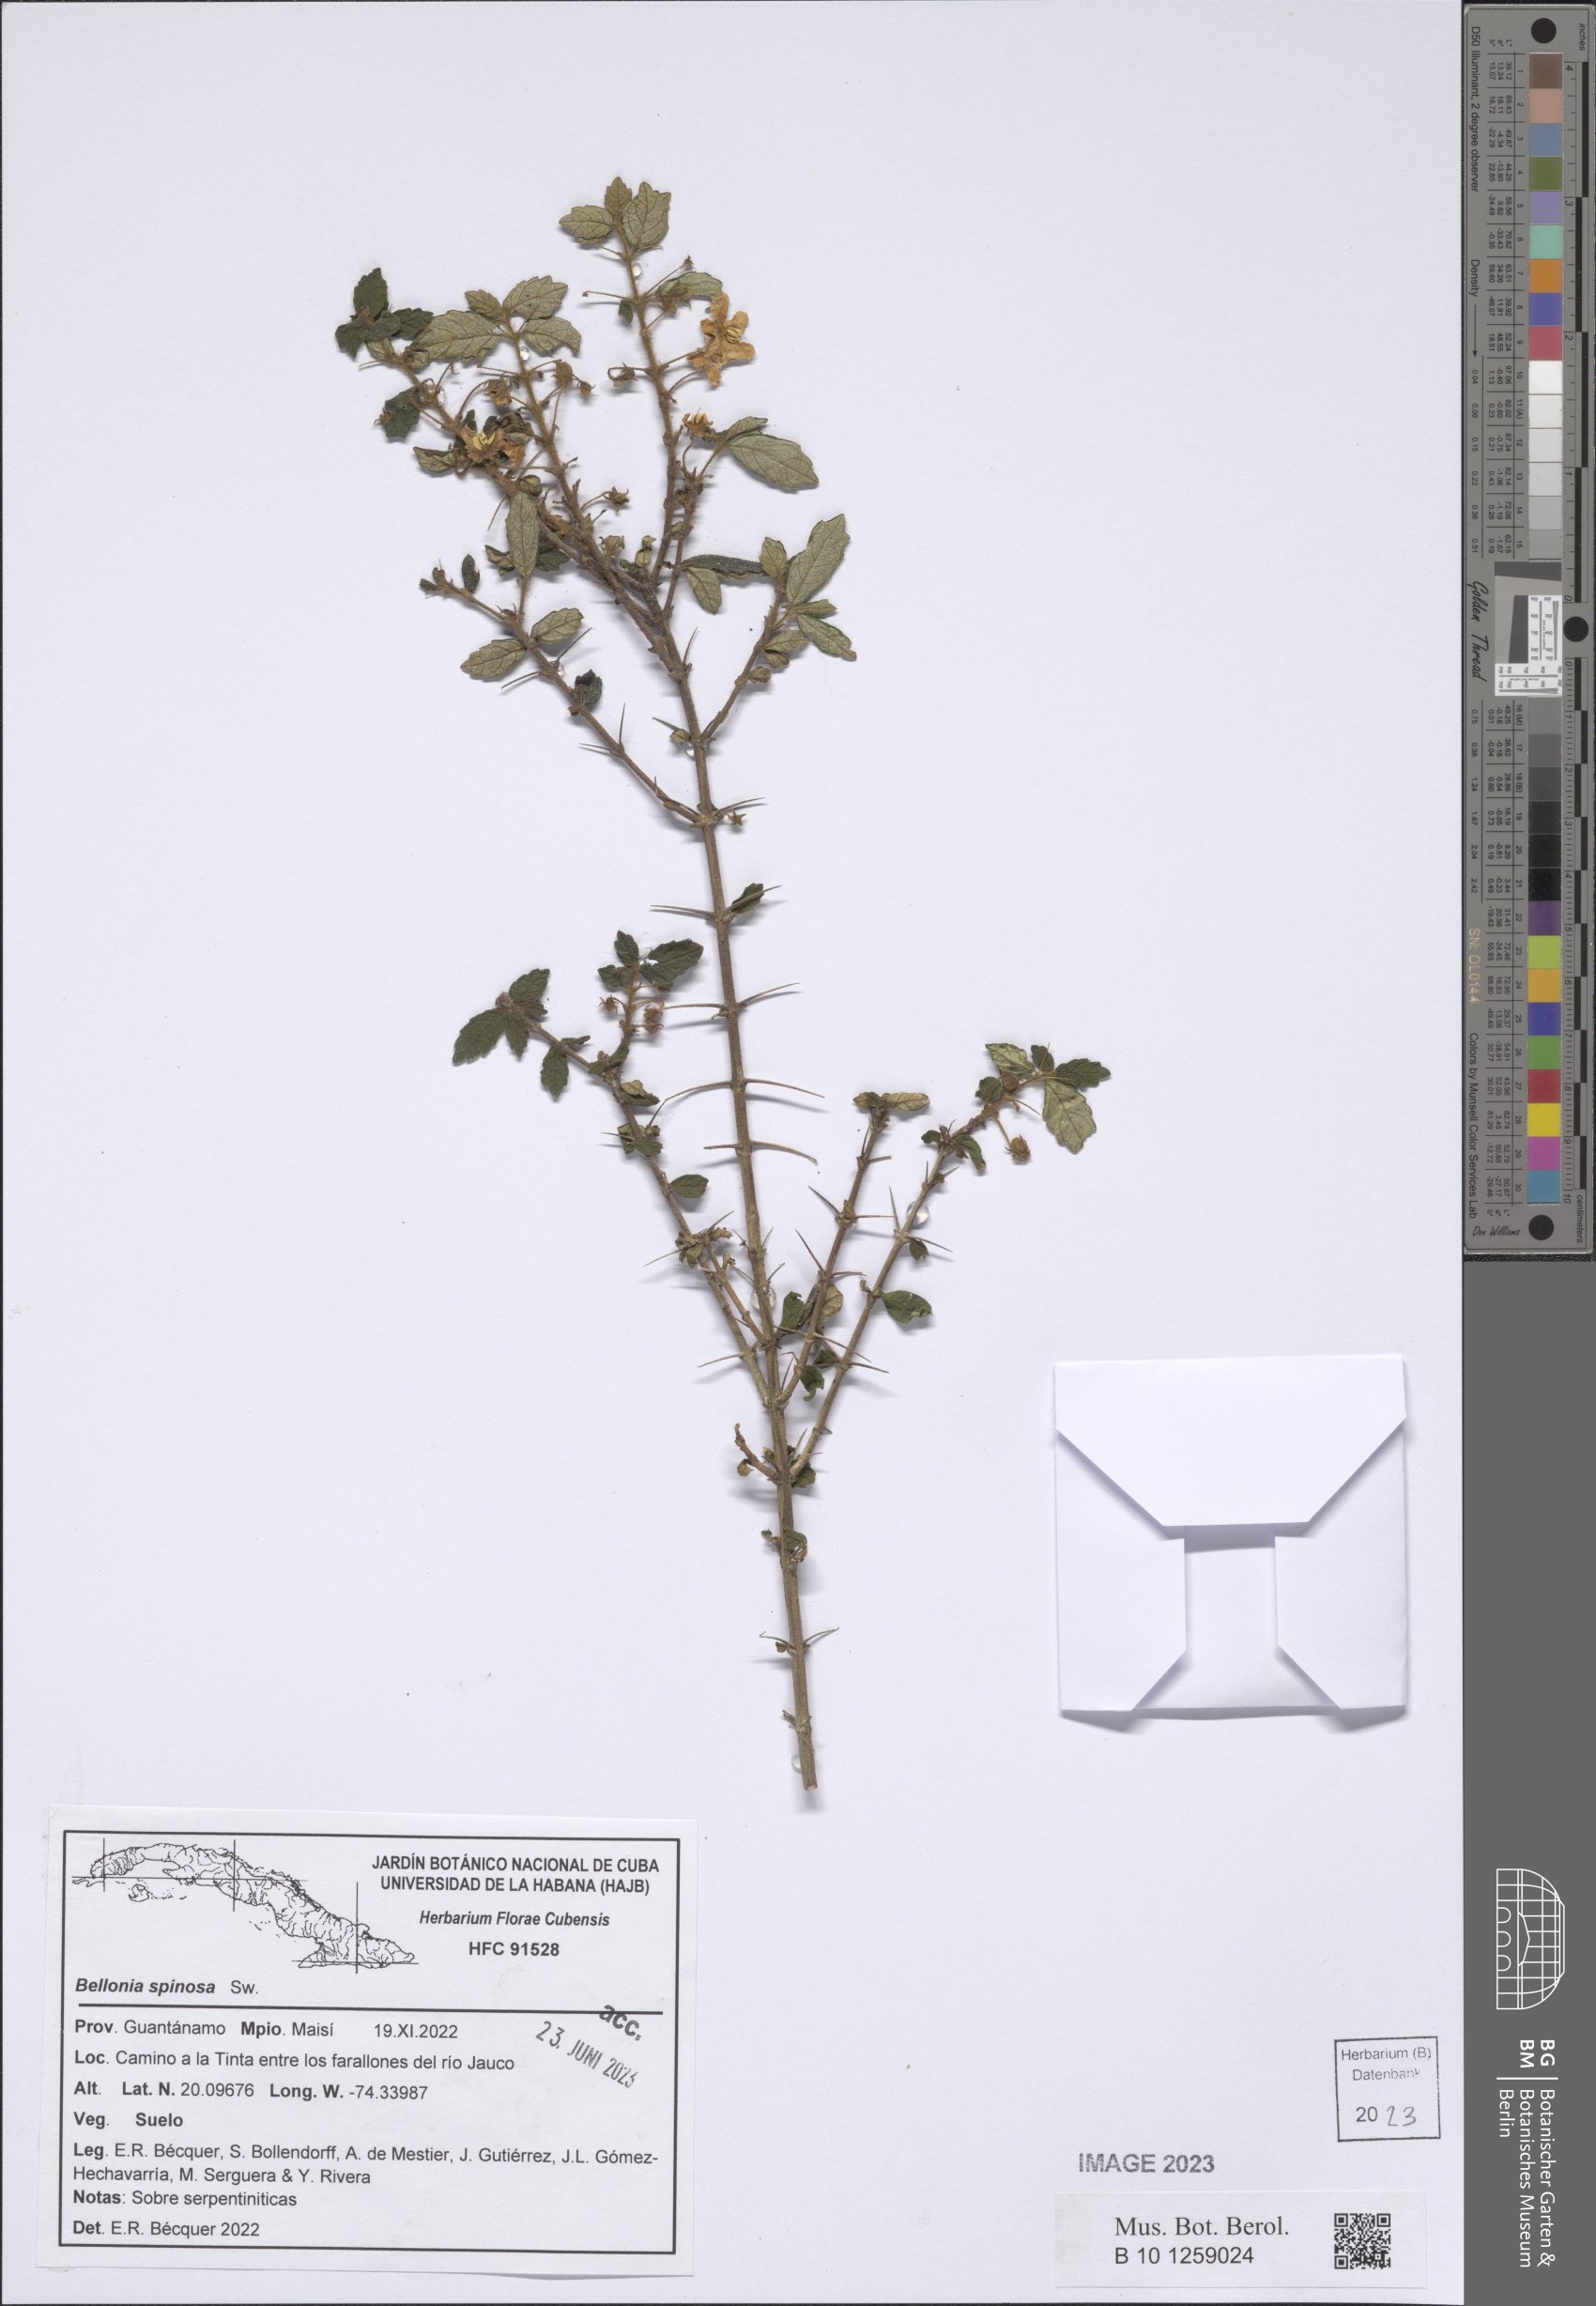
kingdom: Plantae
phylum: Tracheophyta
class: Magnoliopsida
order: Lamiales
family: Gesneriaceae
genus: Bellonia
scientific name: Bellonia spinosa
